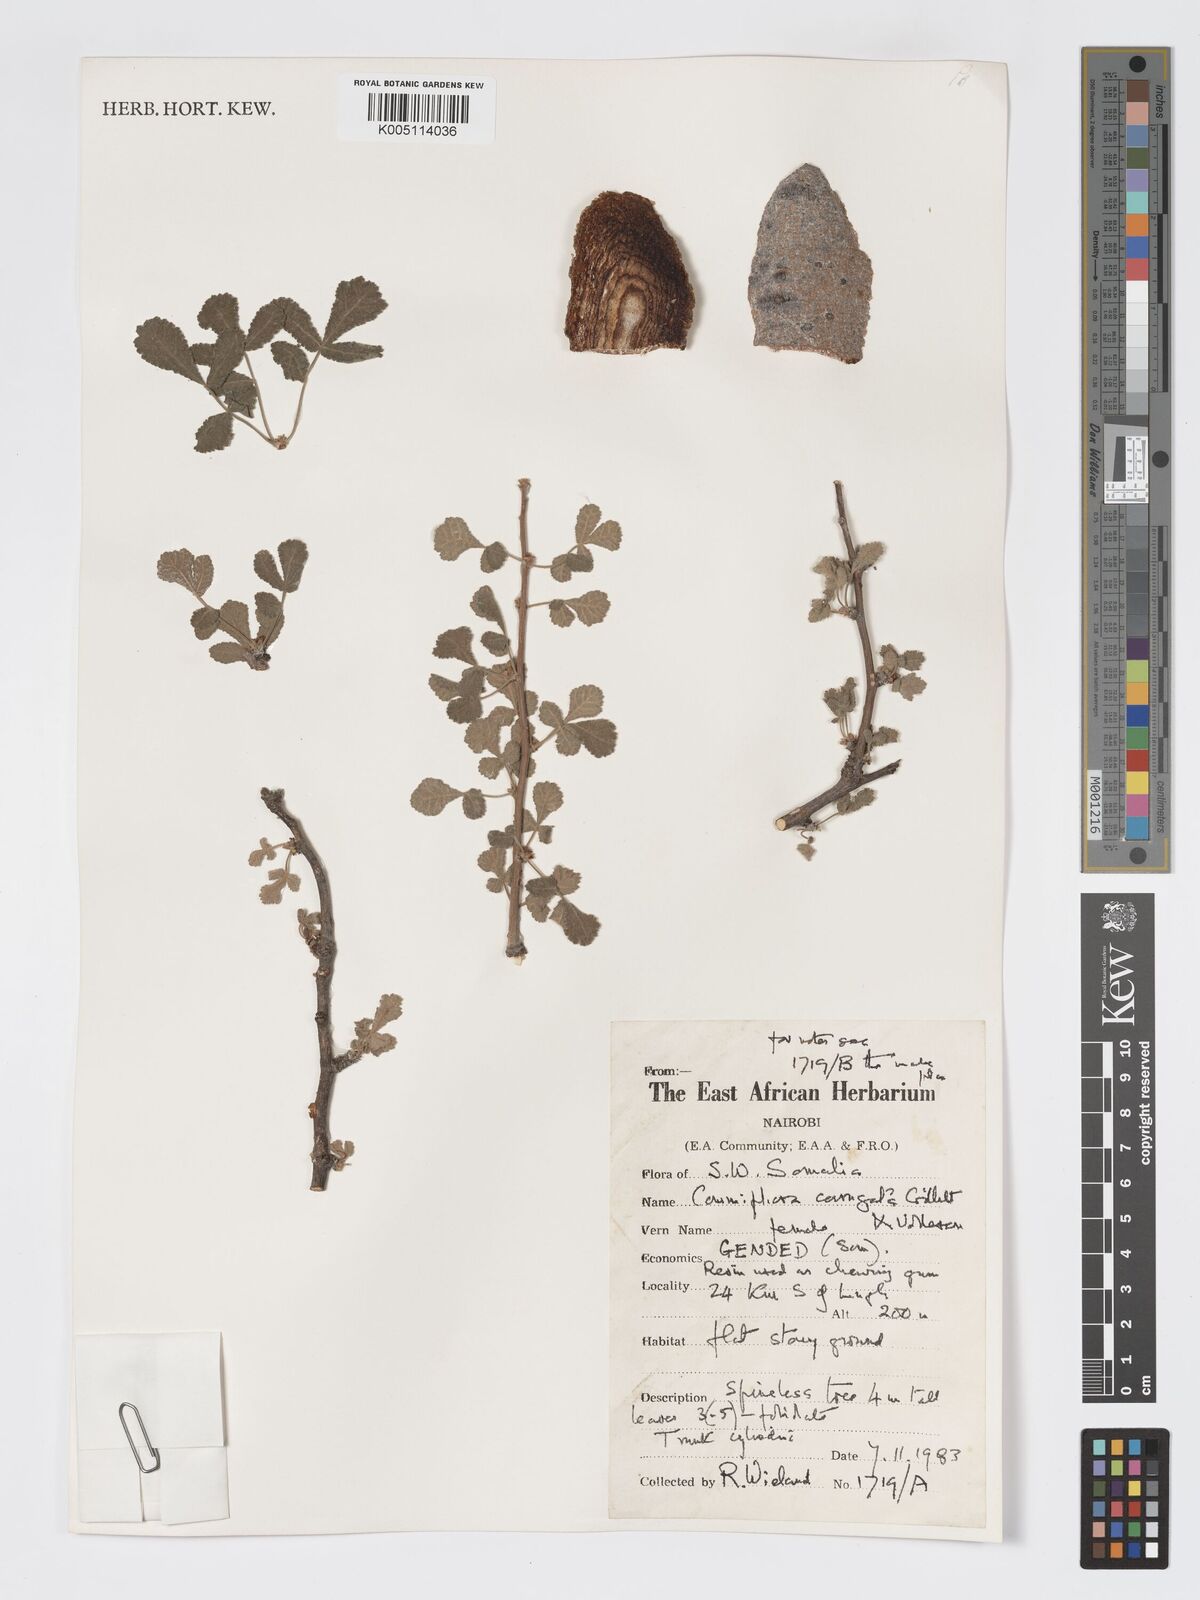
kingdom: Plantae
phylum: Tracheophyta
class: Magnoliopsida
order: Sapindales
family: Burseraceae
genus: Commiphora
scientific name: Commiphora corrugata
